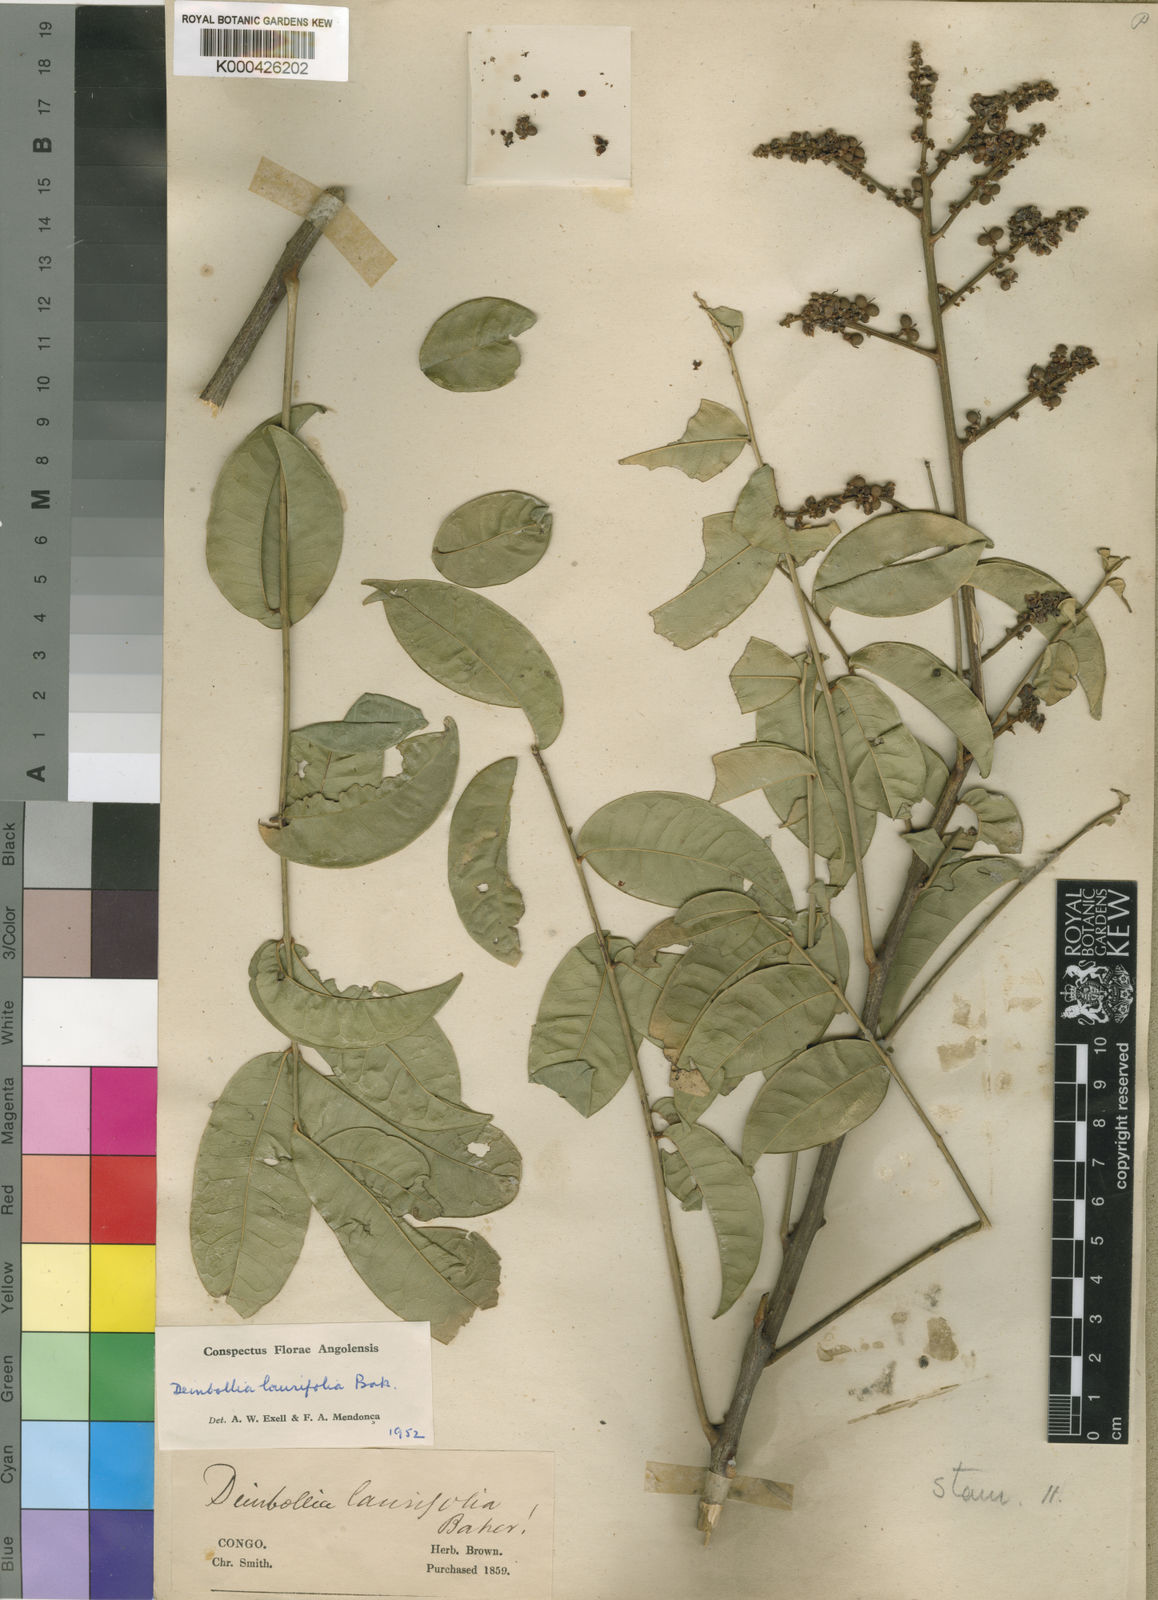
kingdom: Plantae
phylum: Tracheophyta
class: Magnoliopsida
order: Sapindales
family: Sapindaceae
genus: Deinbollia
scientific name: Deinbollia laurifolia
